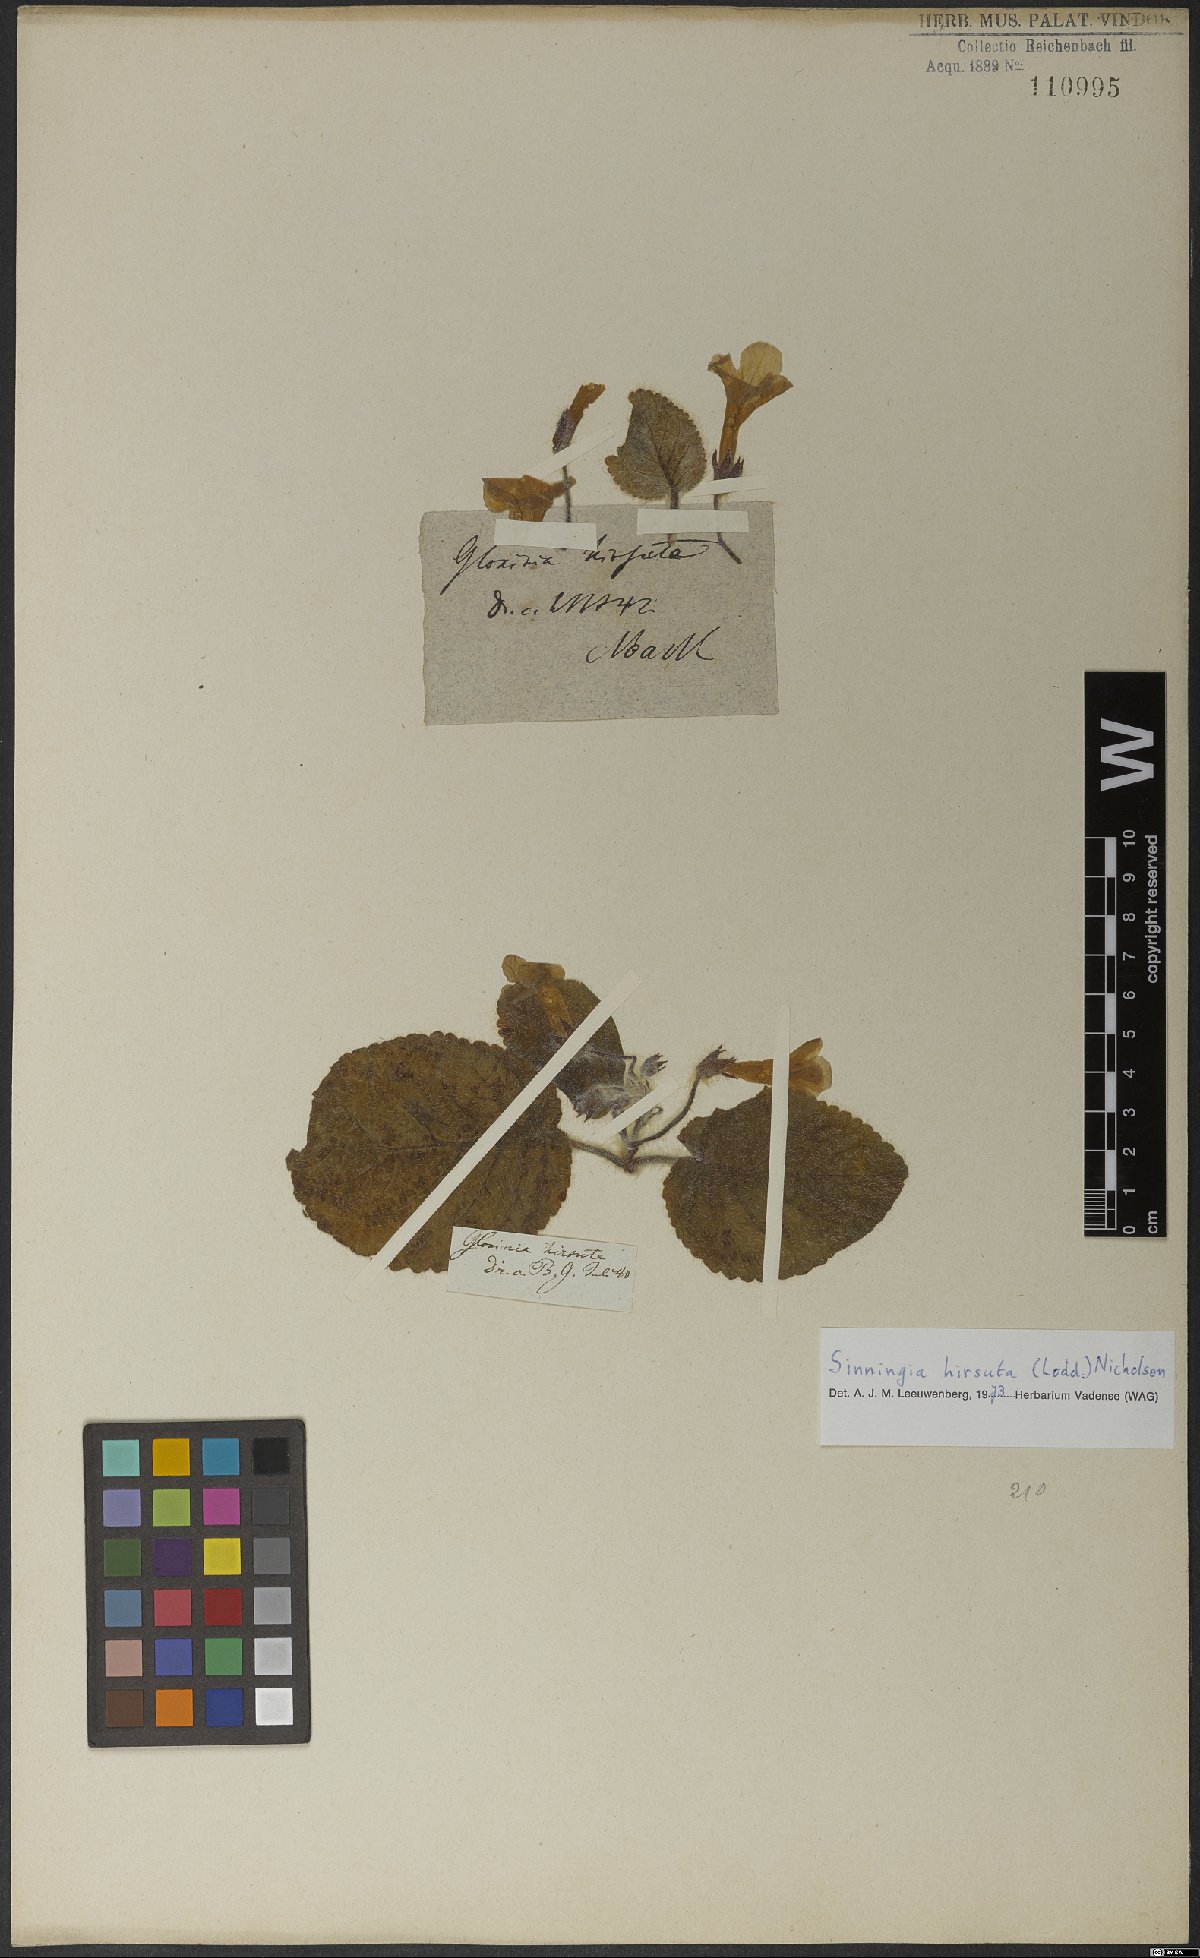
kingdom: Plantae
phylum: Tracheophyta
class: Magnoliopsida
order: Lamiales
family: Gesneriaceae
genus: Sinningia
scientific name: Sinningia hirsuta
